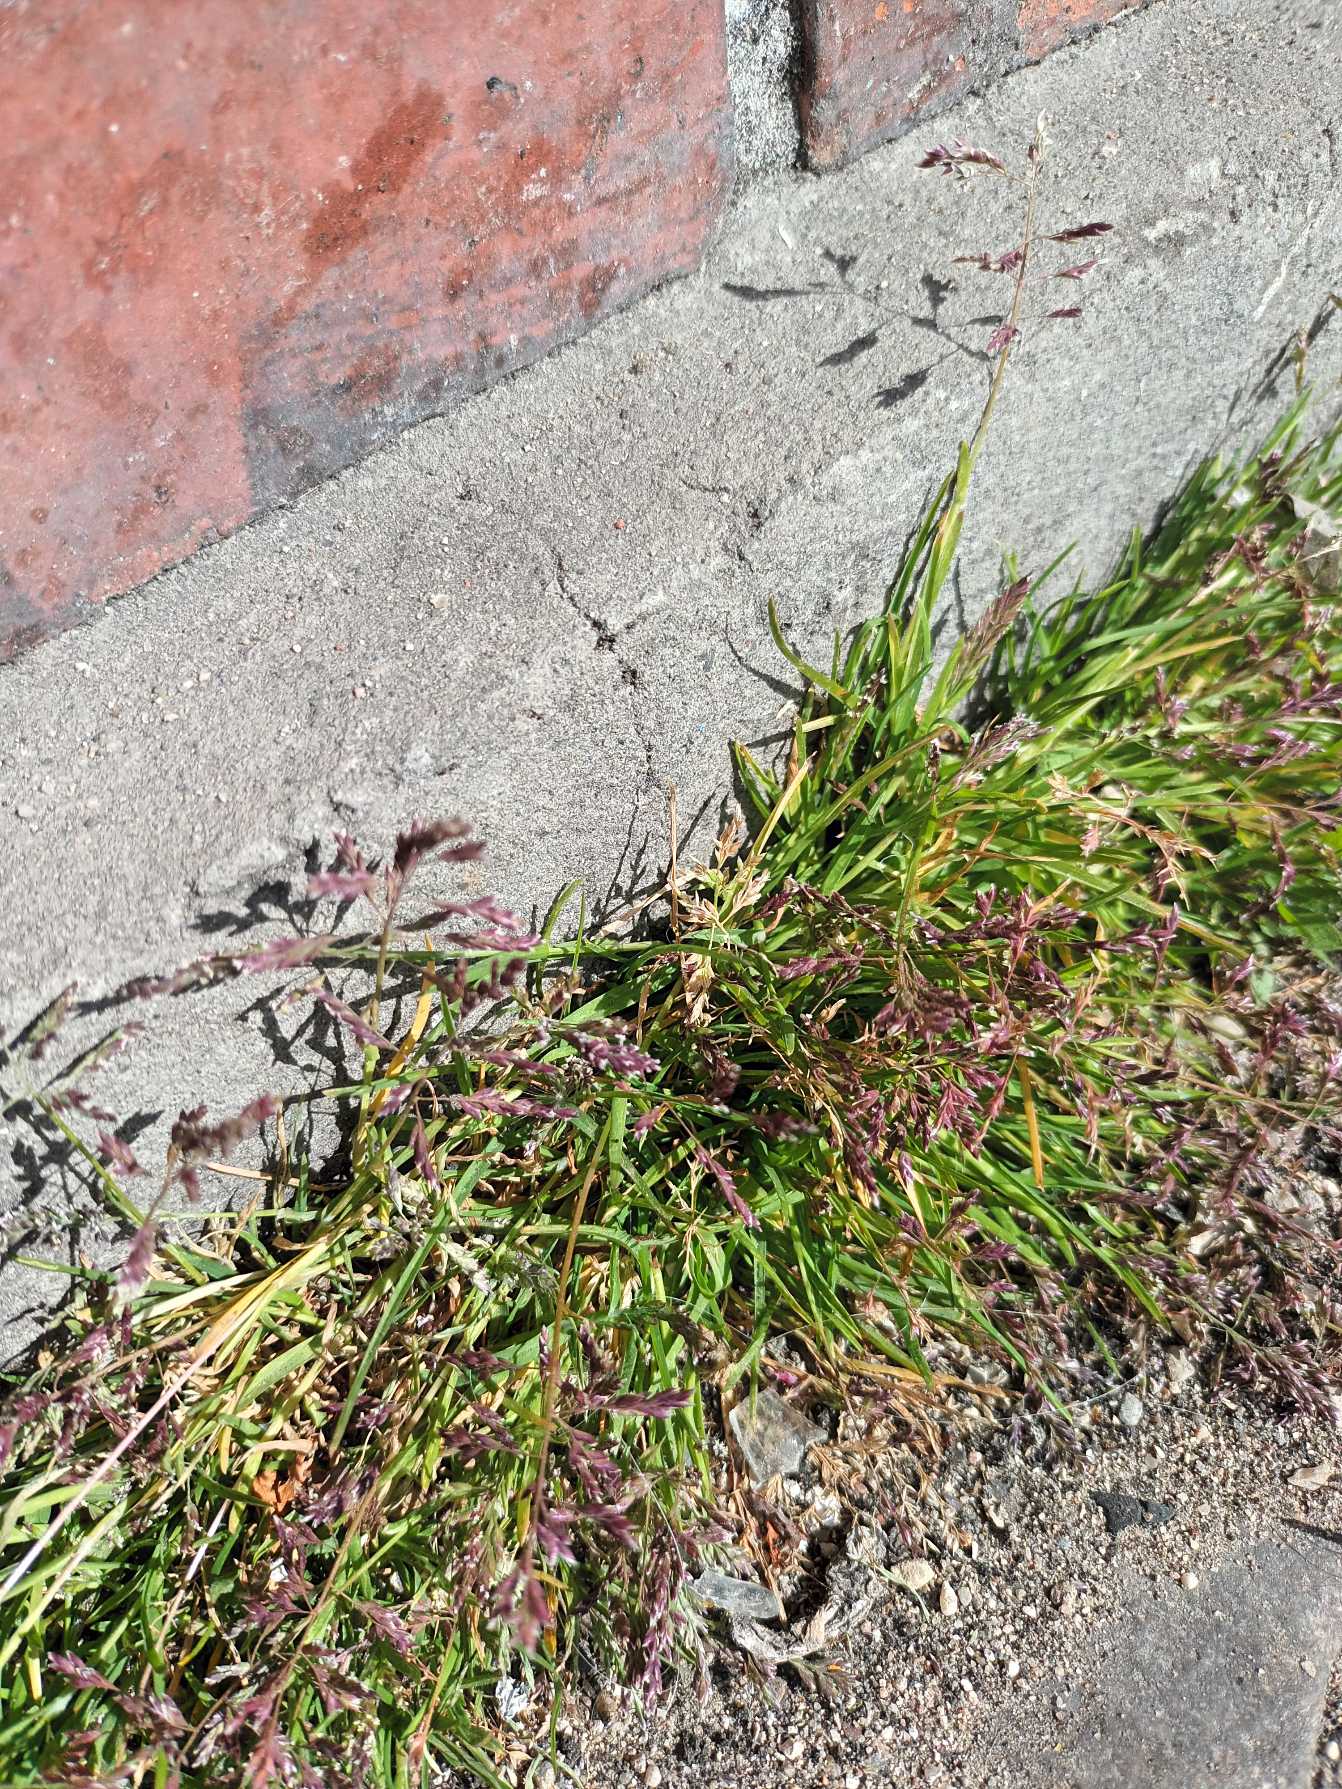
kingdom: Plantae
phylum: Tracheophyta
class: Liliopsida
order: Poales
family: Poaceae
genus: Poa
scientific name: Poa annua
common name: Enårig rapgræs
